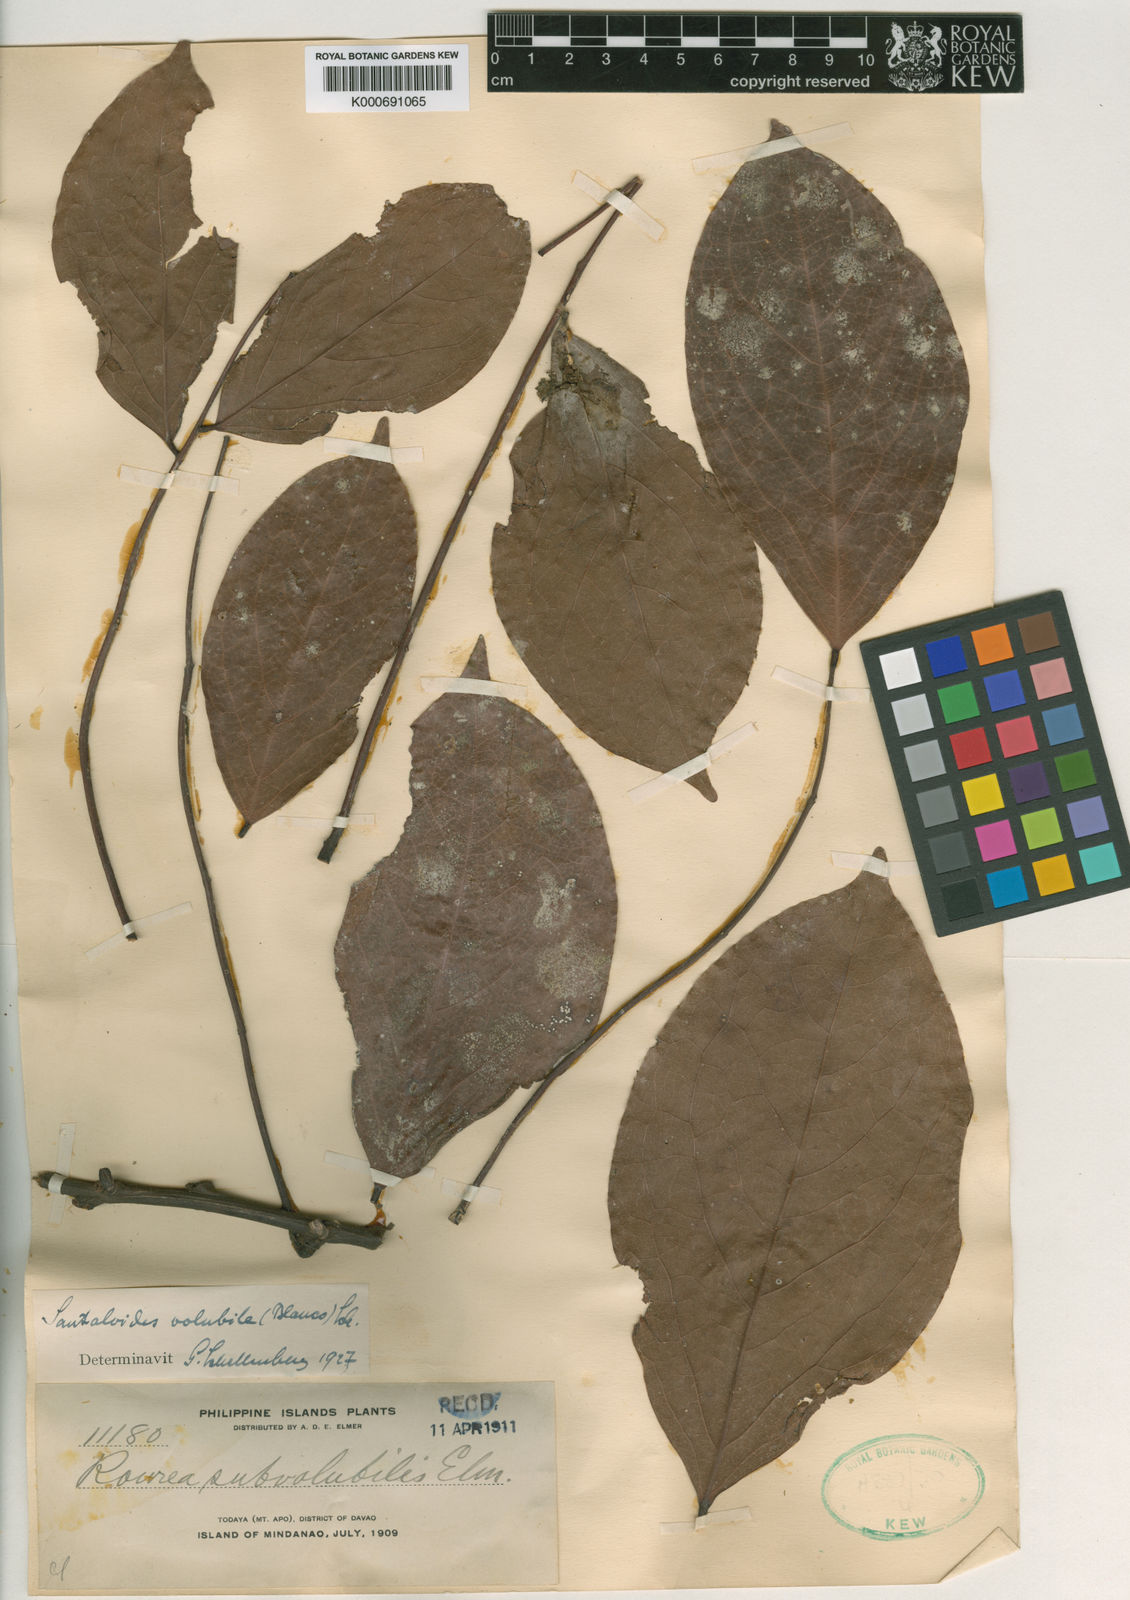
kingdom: Plantae
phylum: Tracheophyta
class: Magnoliopsida
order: Oxalidales
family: Connaraceae
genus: Rourea
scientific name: Rourea
